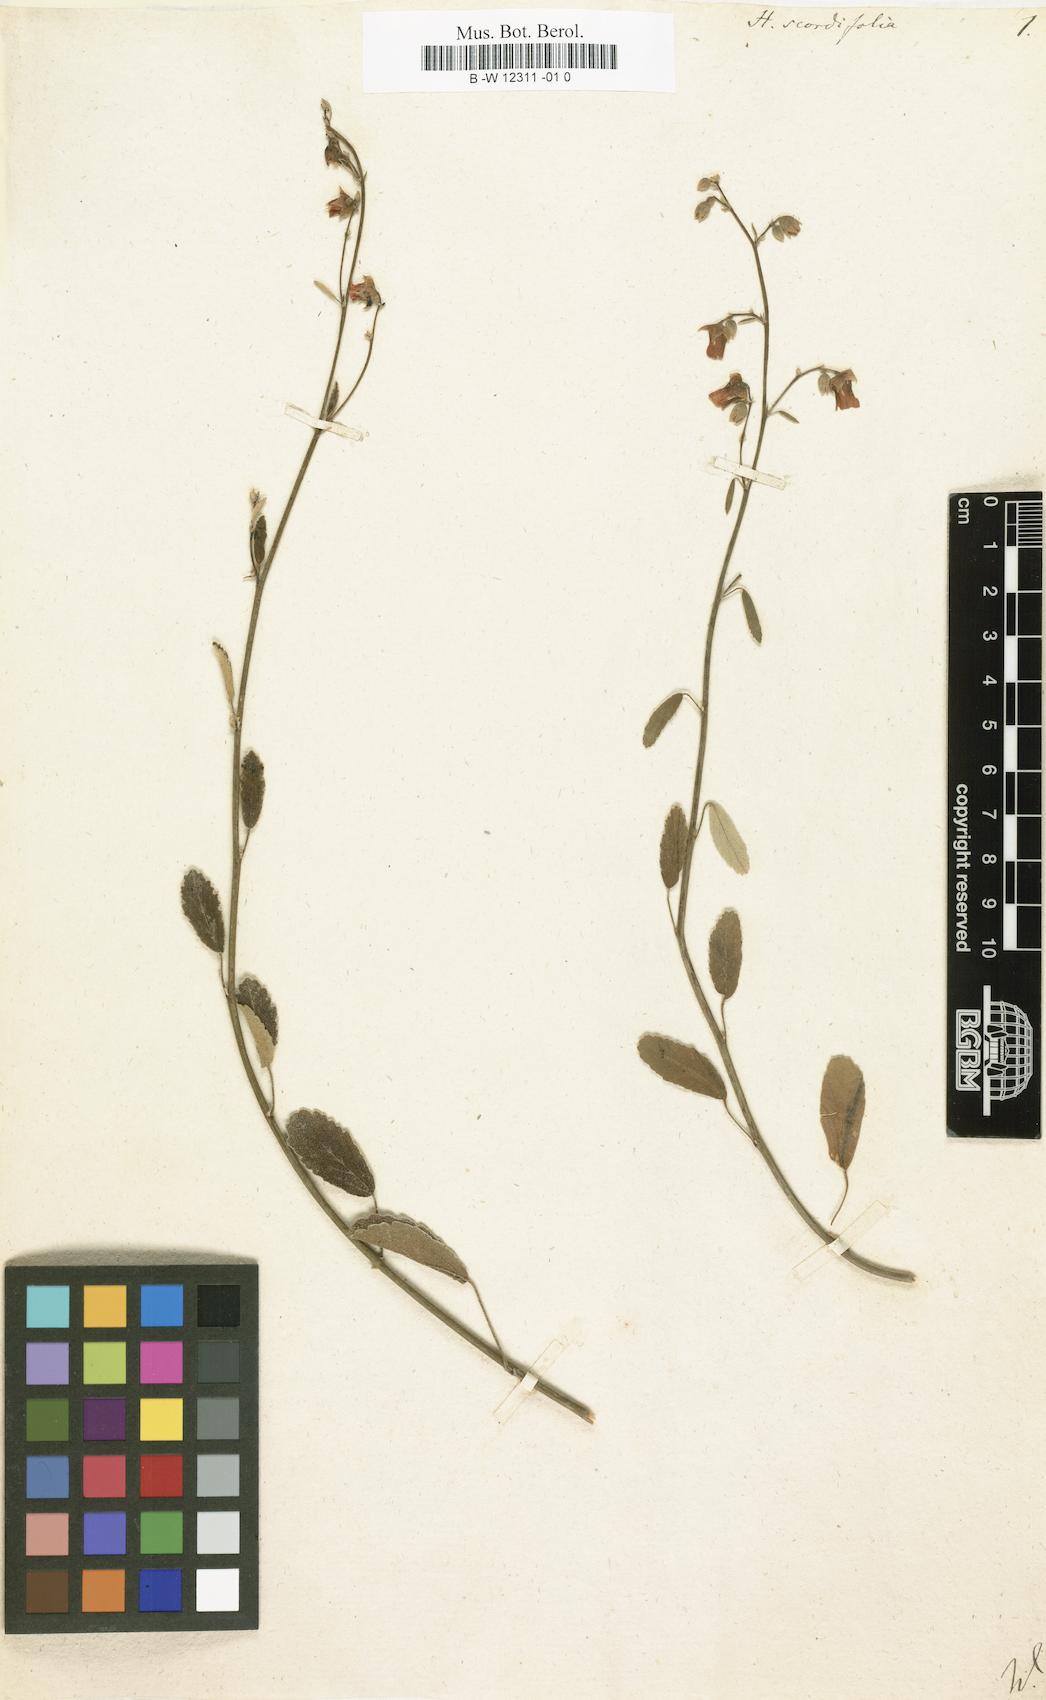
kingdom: Plantae
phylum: Tracheophyta
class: Magnoliopsida
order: Malvales
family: Malvaceae
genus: Hermannia
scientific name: Hermannia scordifolia
